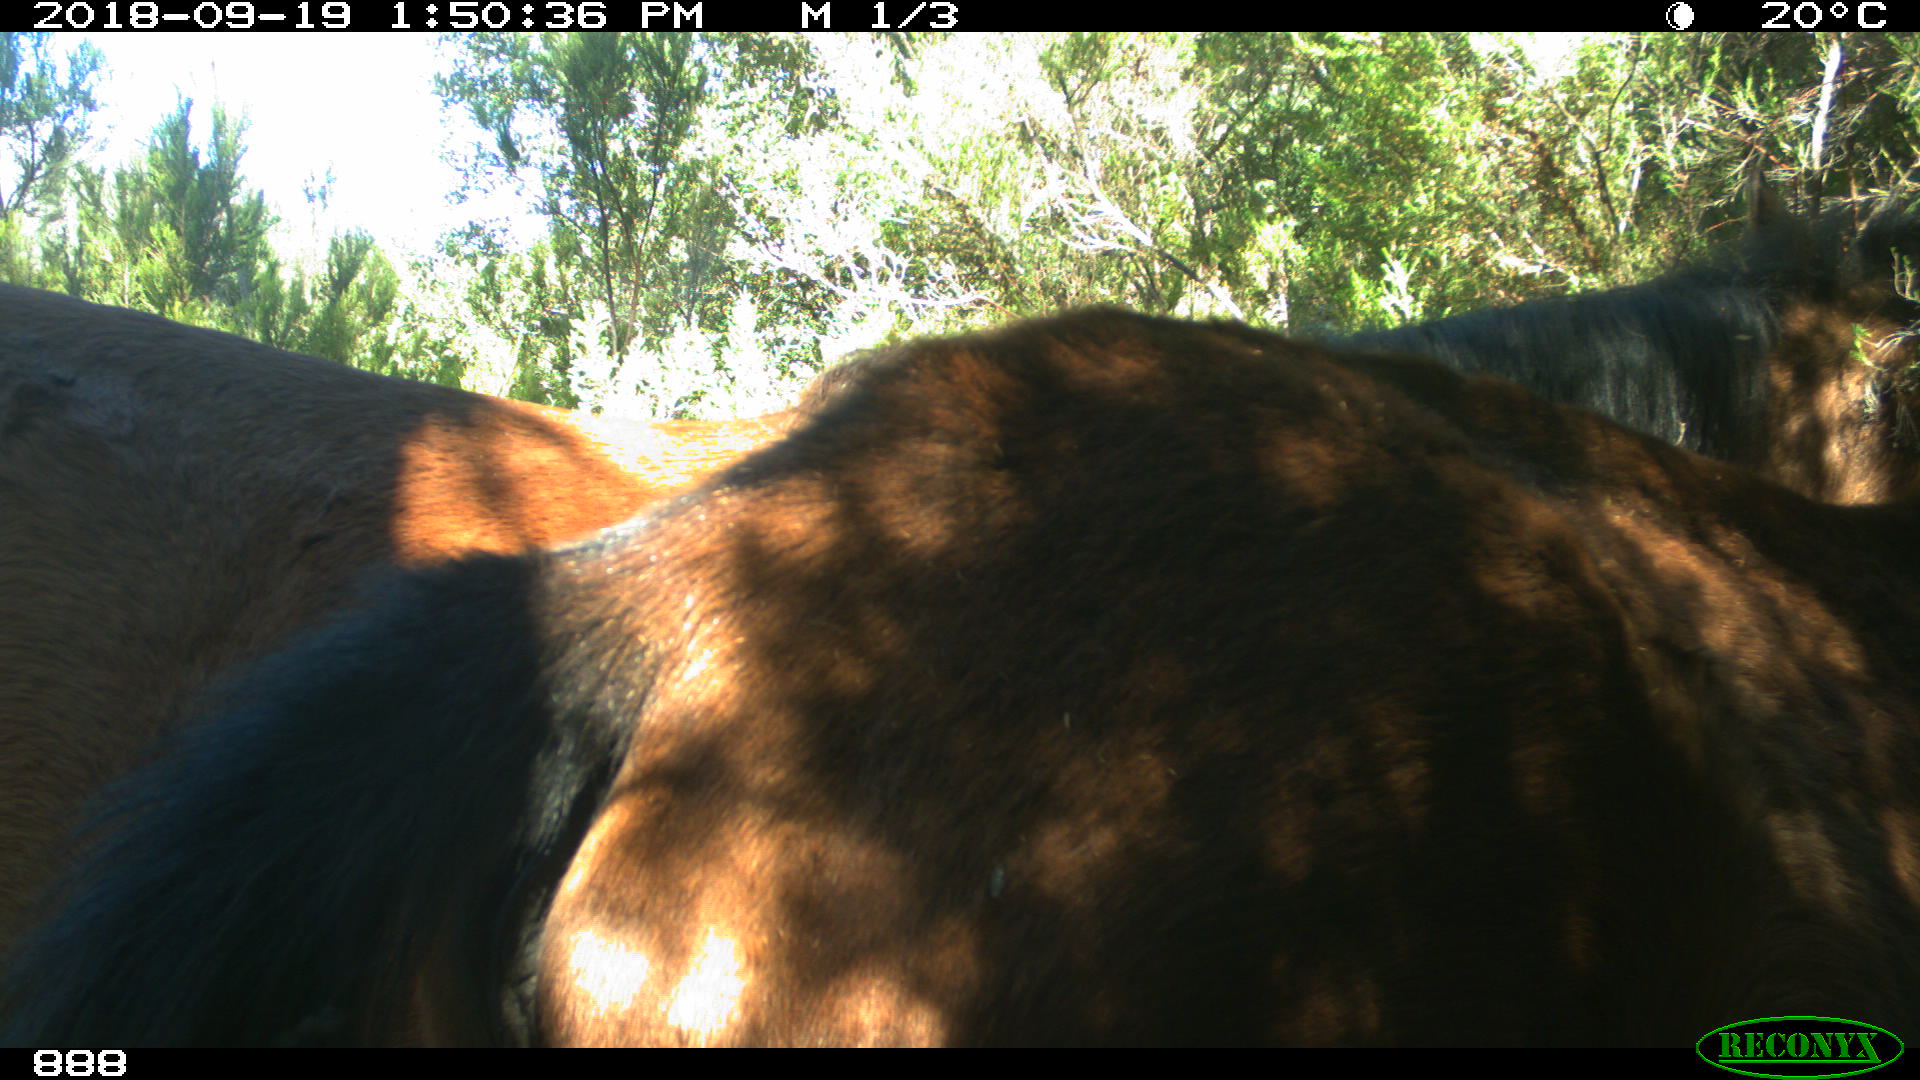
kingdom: Animalia
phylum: Chordata
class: Mammalia
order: Perissodactyla
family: Equidae
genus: Equus
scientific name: Equus caballus
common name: Horse
